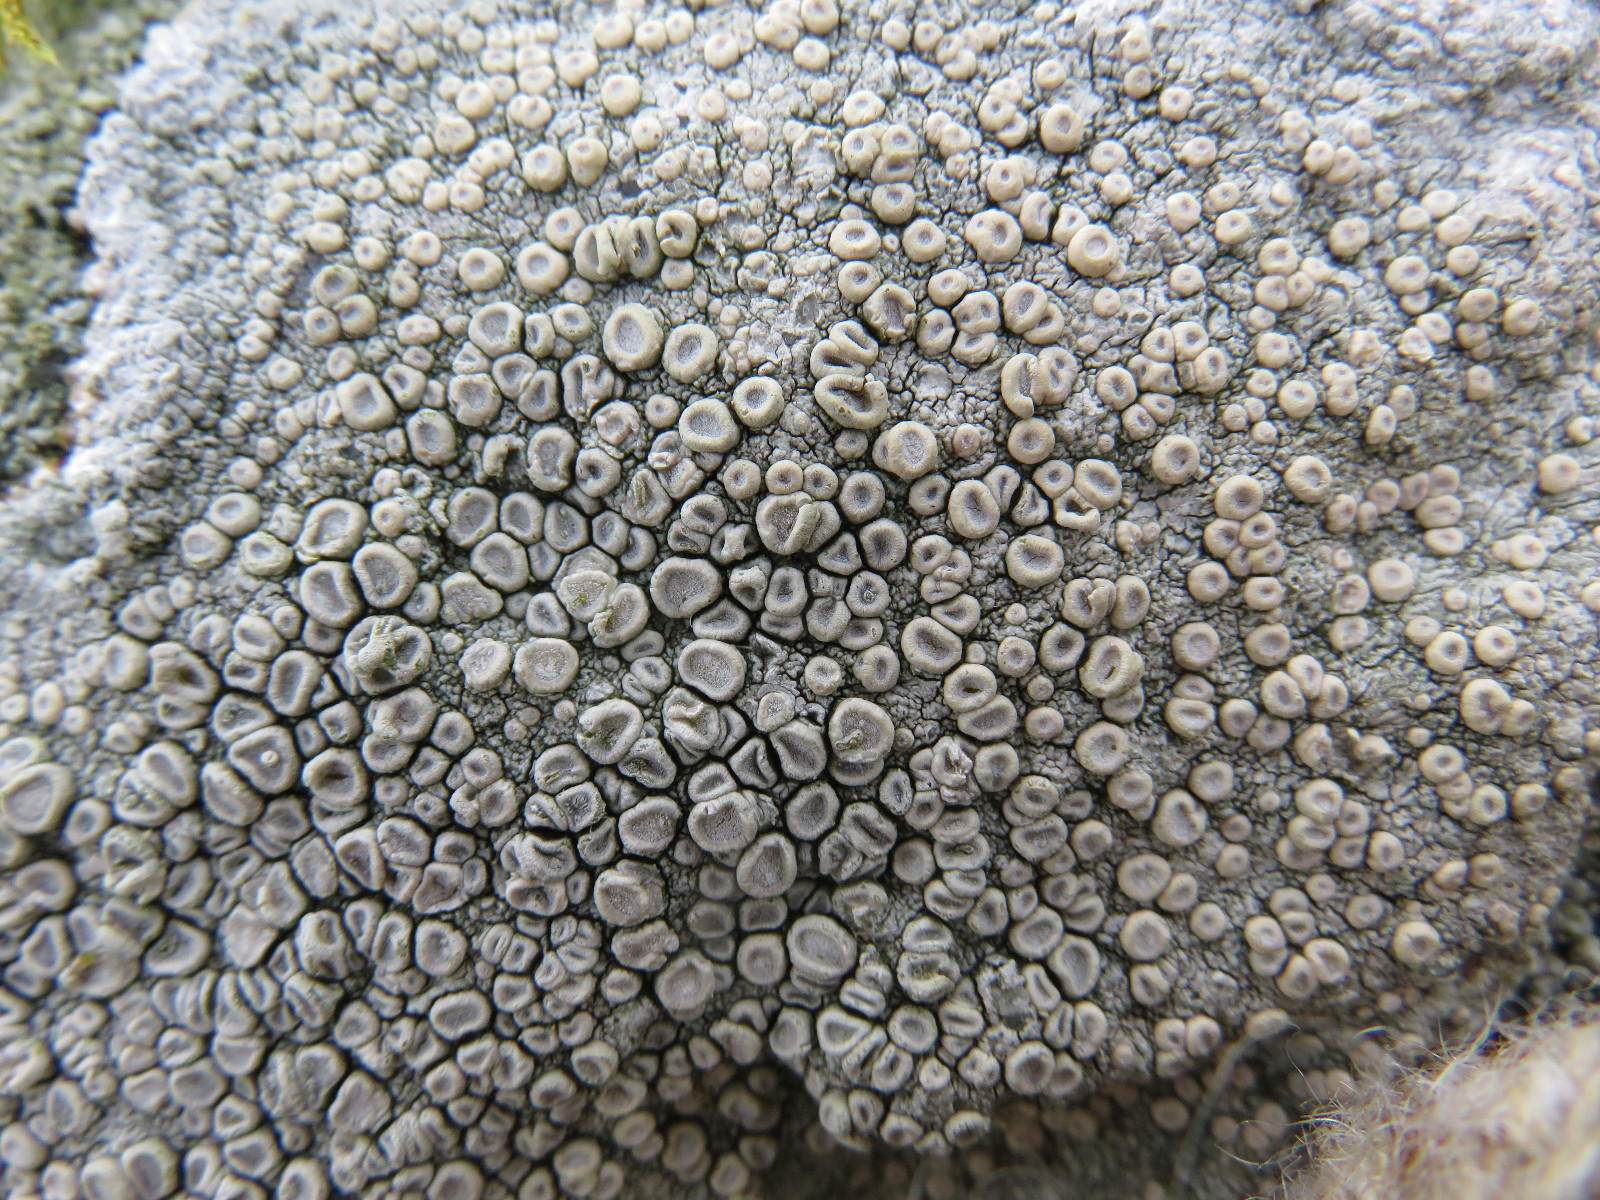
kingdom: Fungi
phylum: Ascomycota
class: Lecanoromycetes
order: Pertusariales
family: Ochrolechiaceae
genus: Ochrolechia
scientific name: Ochrolechia parella
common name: almindelig blegskivelav
